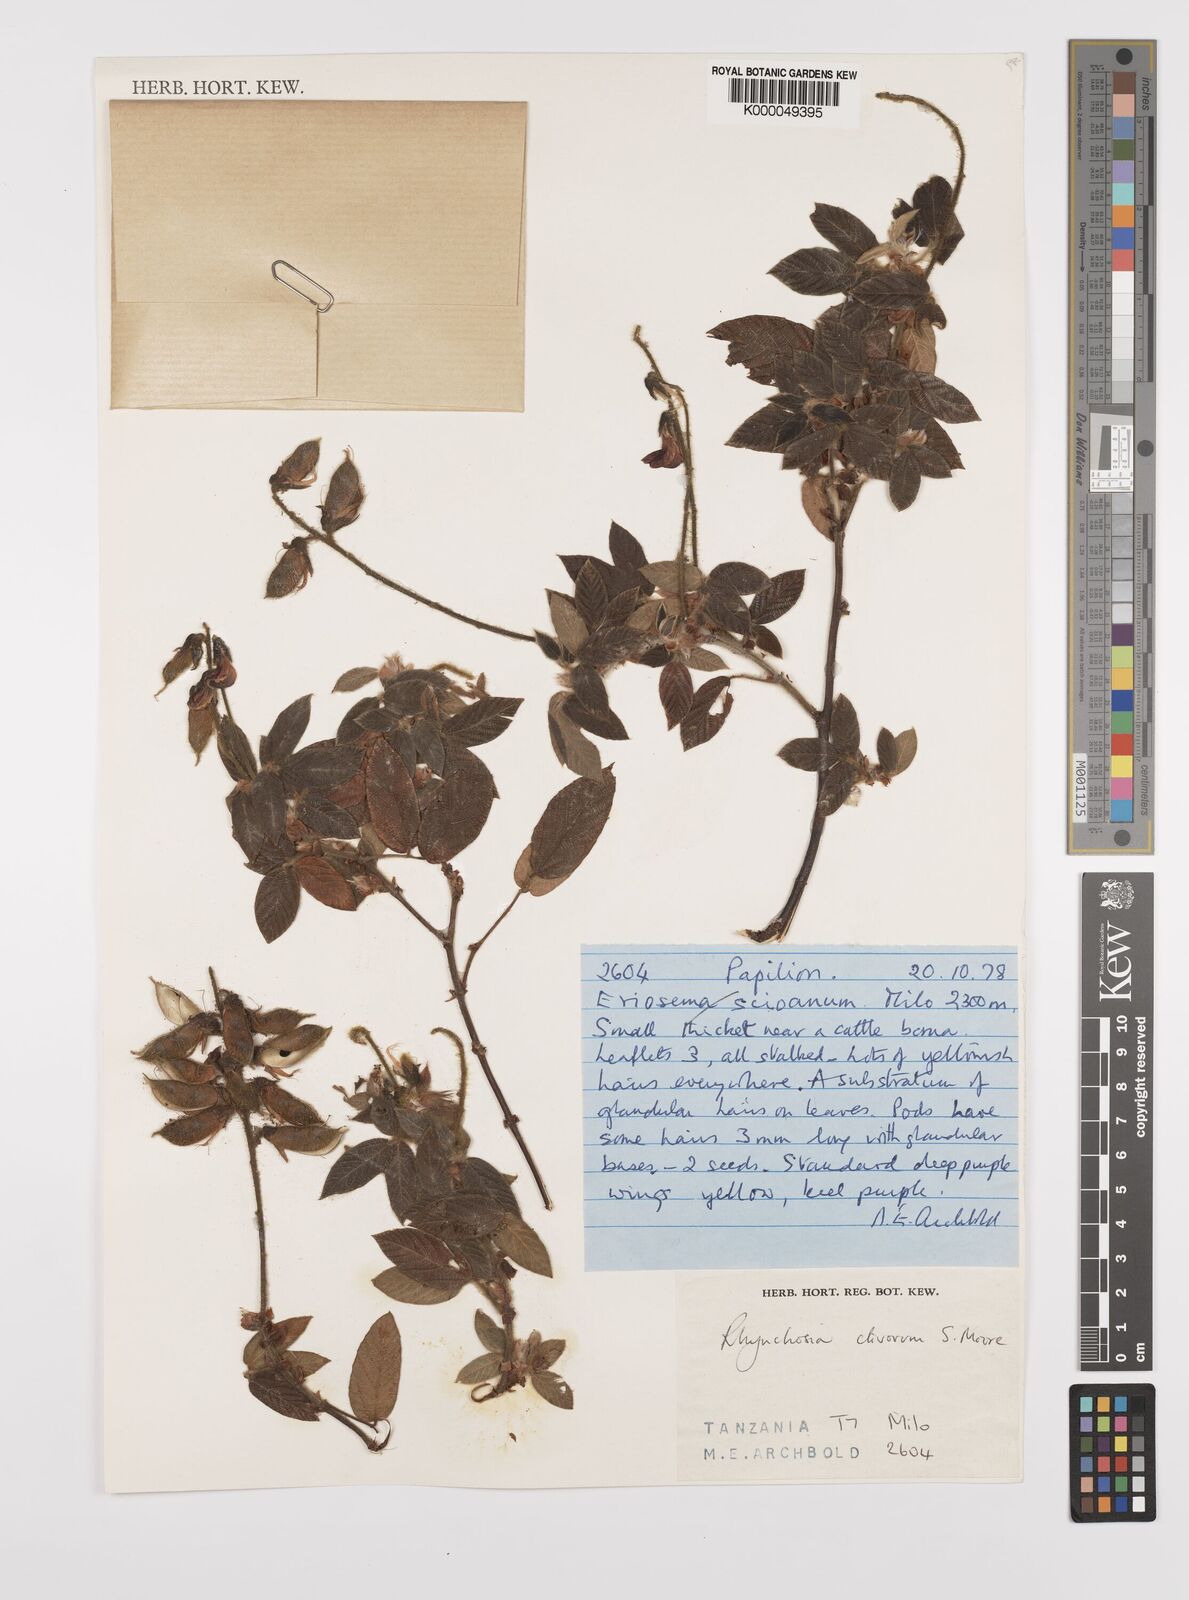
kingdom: Plantae
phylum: Tracheophyta
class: Magnoliopsida
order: Fabales
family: Fabaceae
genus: Rhynchosia
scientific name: Rhynchosia clivorum
